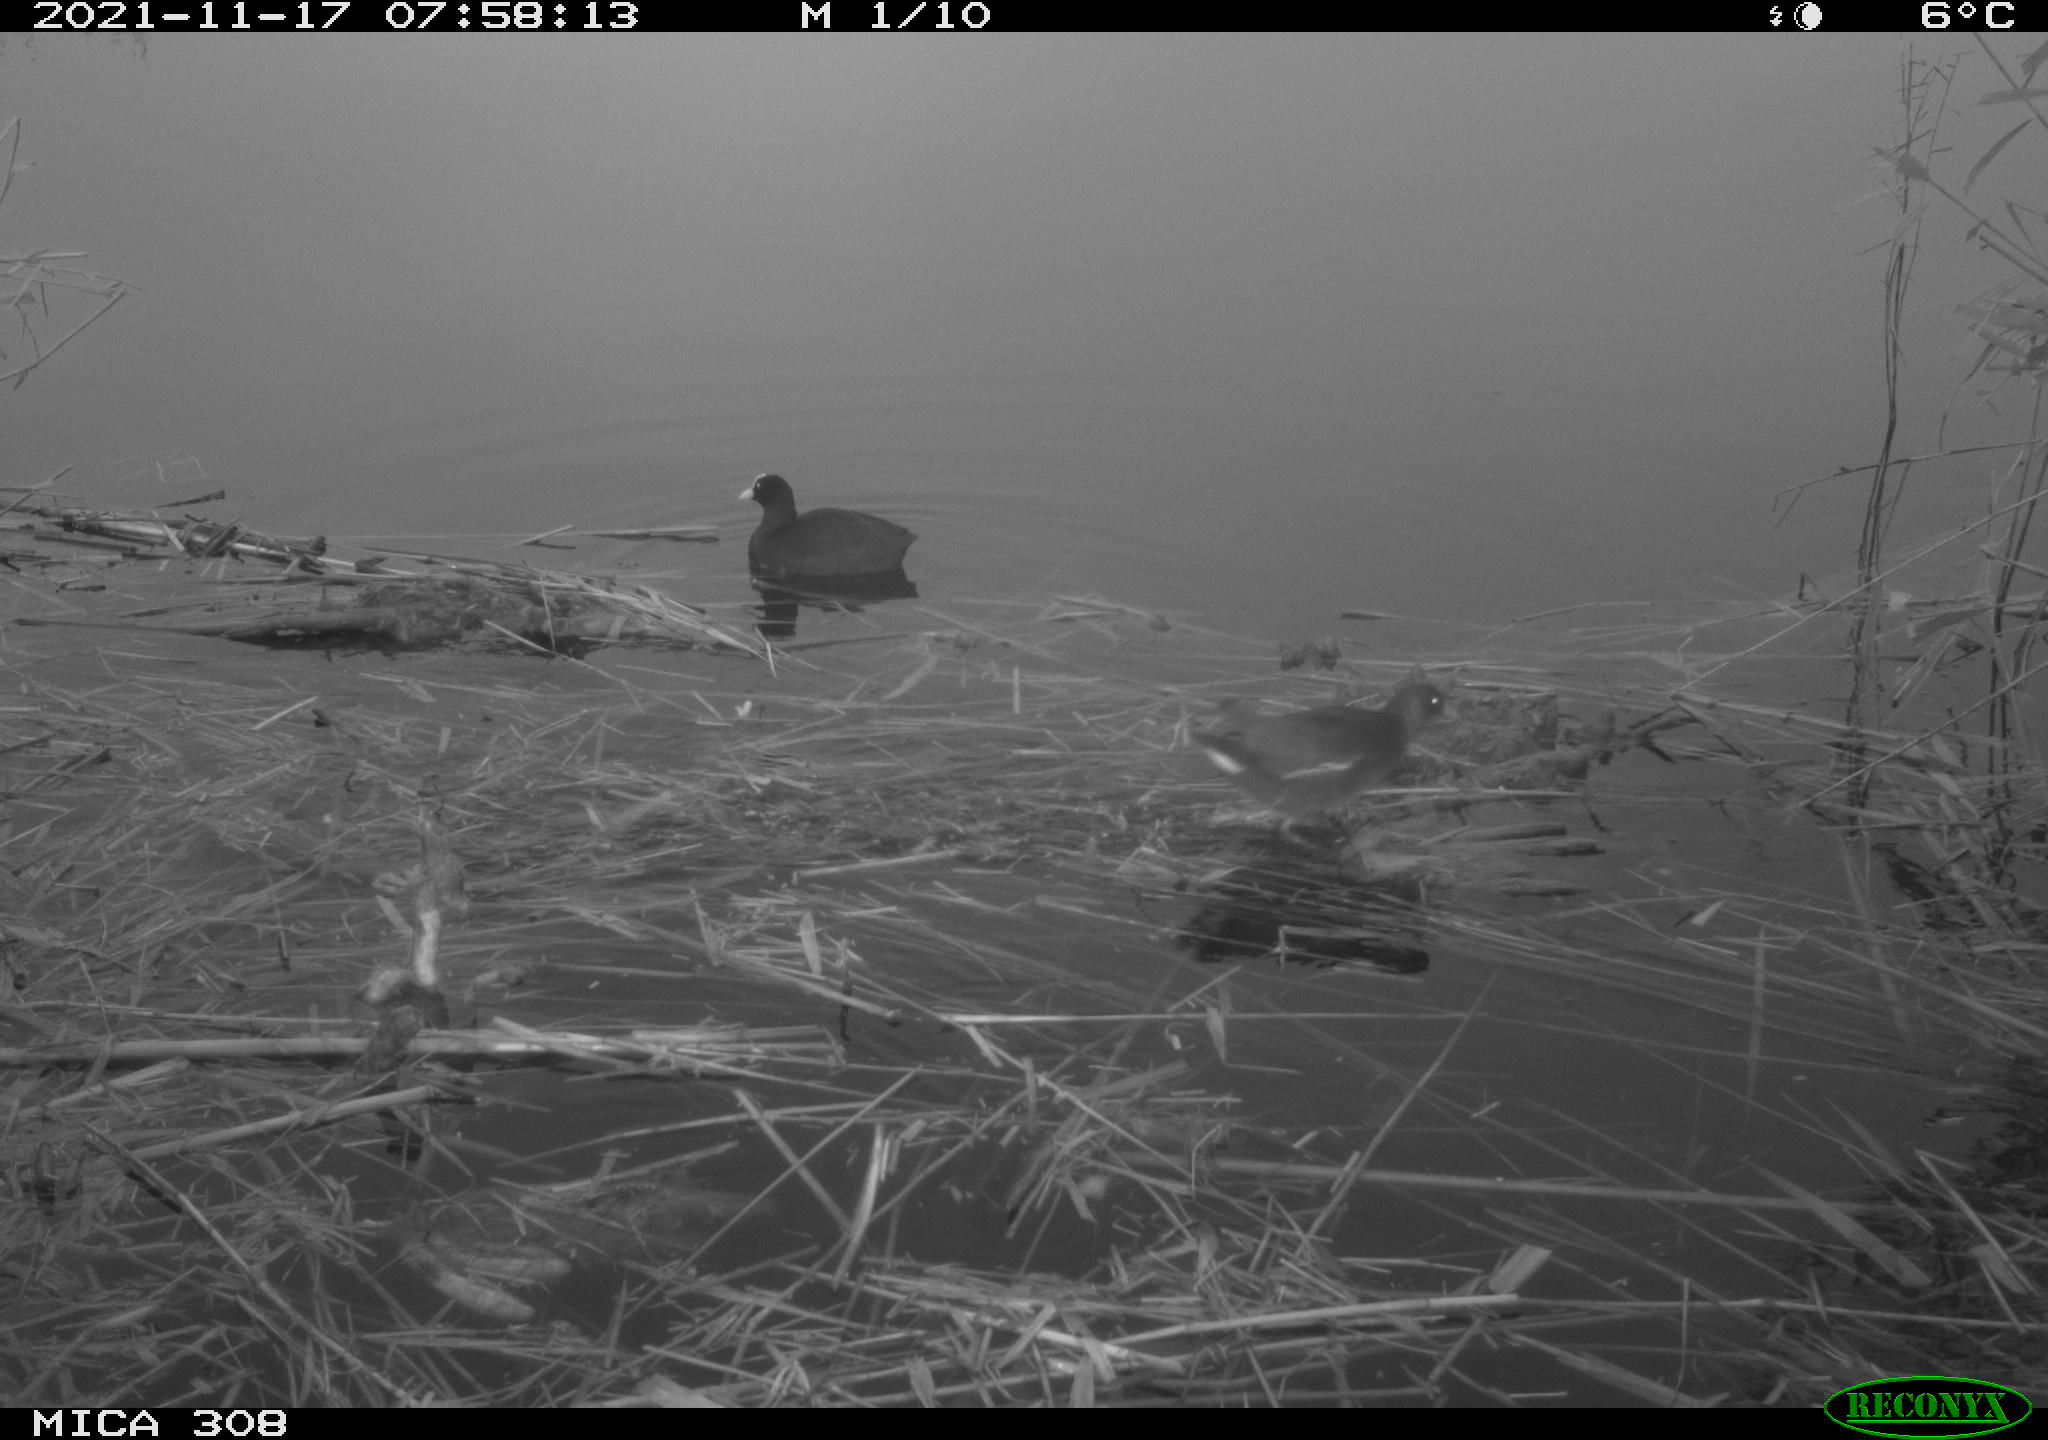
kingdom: Animalia
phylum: Chordata
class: Aves
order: Gruiformes
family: Rallidae
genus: Gallinula
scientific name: Gallinula chloropus
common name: Common moorhen
